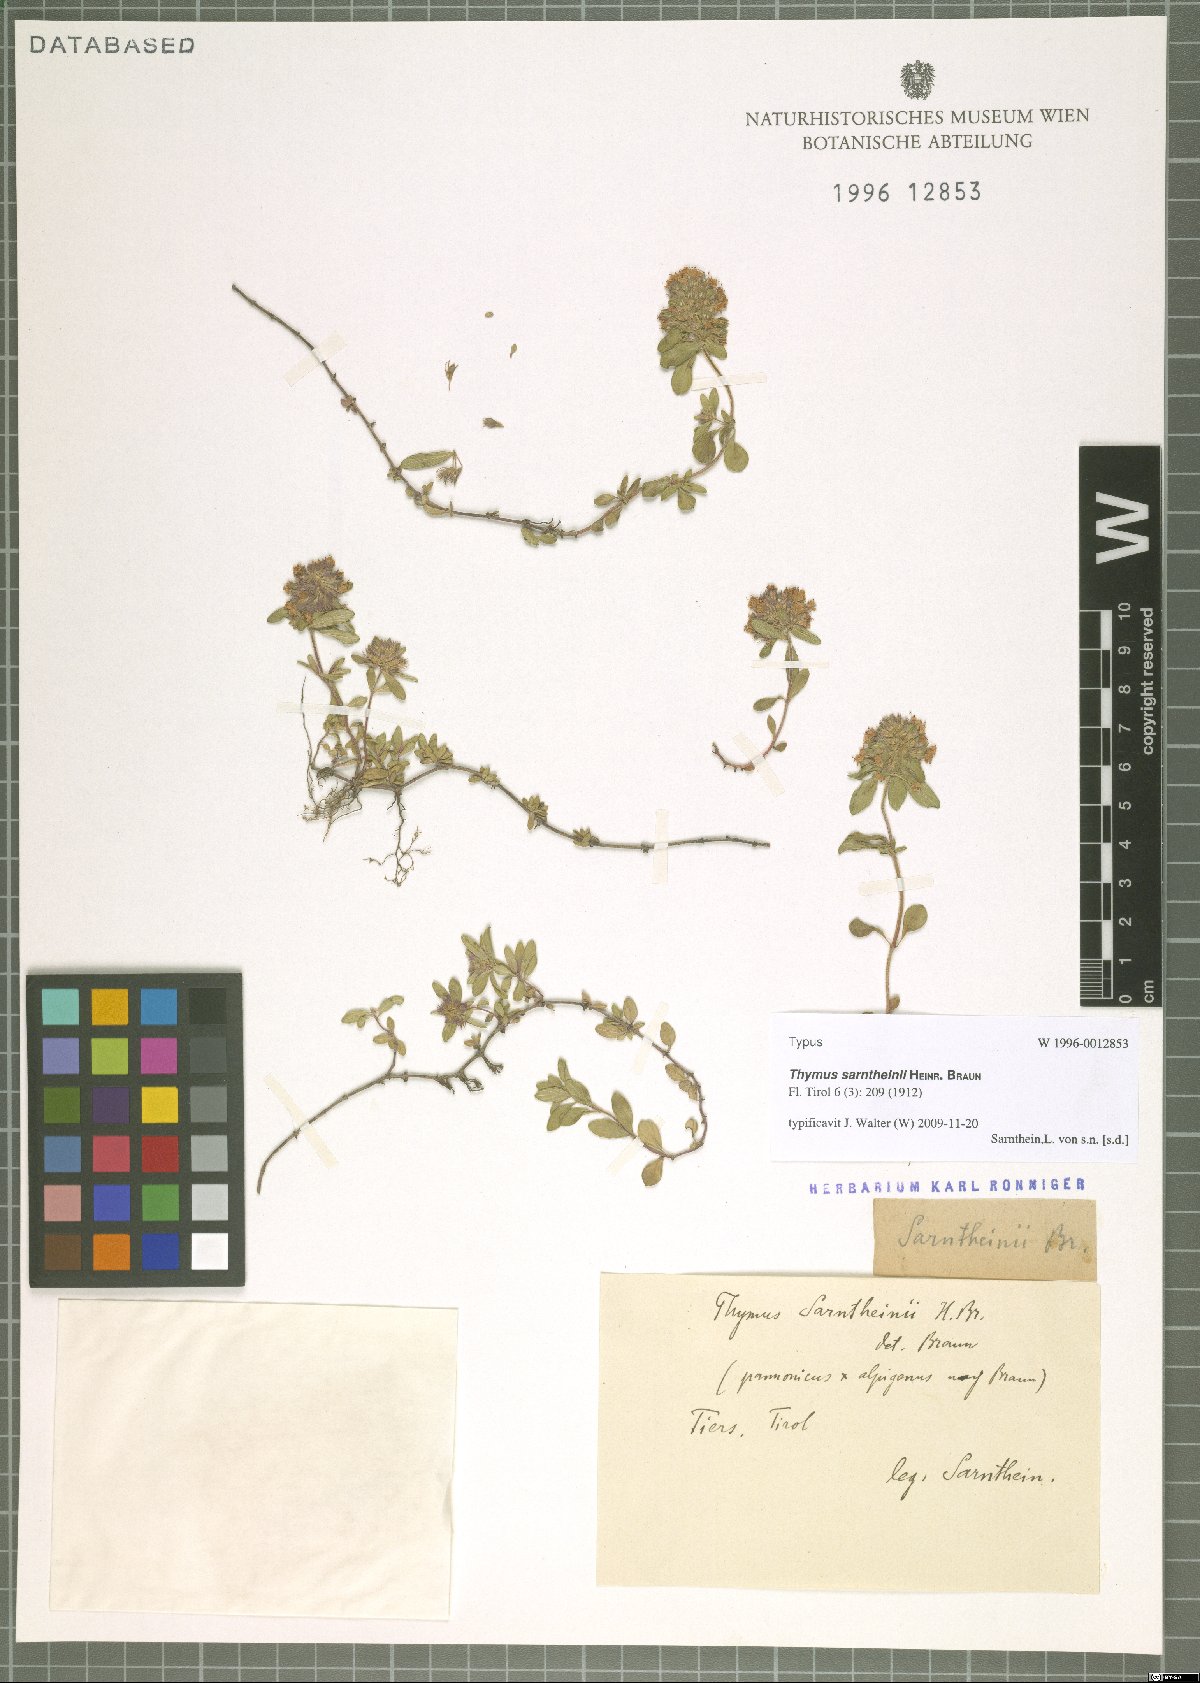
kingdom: Plantae
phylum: Tracheophyta
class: Magnoliopsida
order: Lamiales
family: Lamiaceae
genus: Thymus
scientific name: Thymus praecox
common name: Wild thyme
